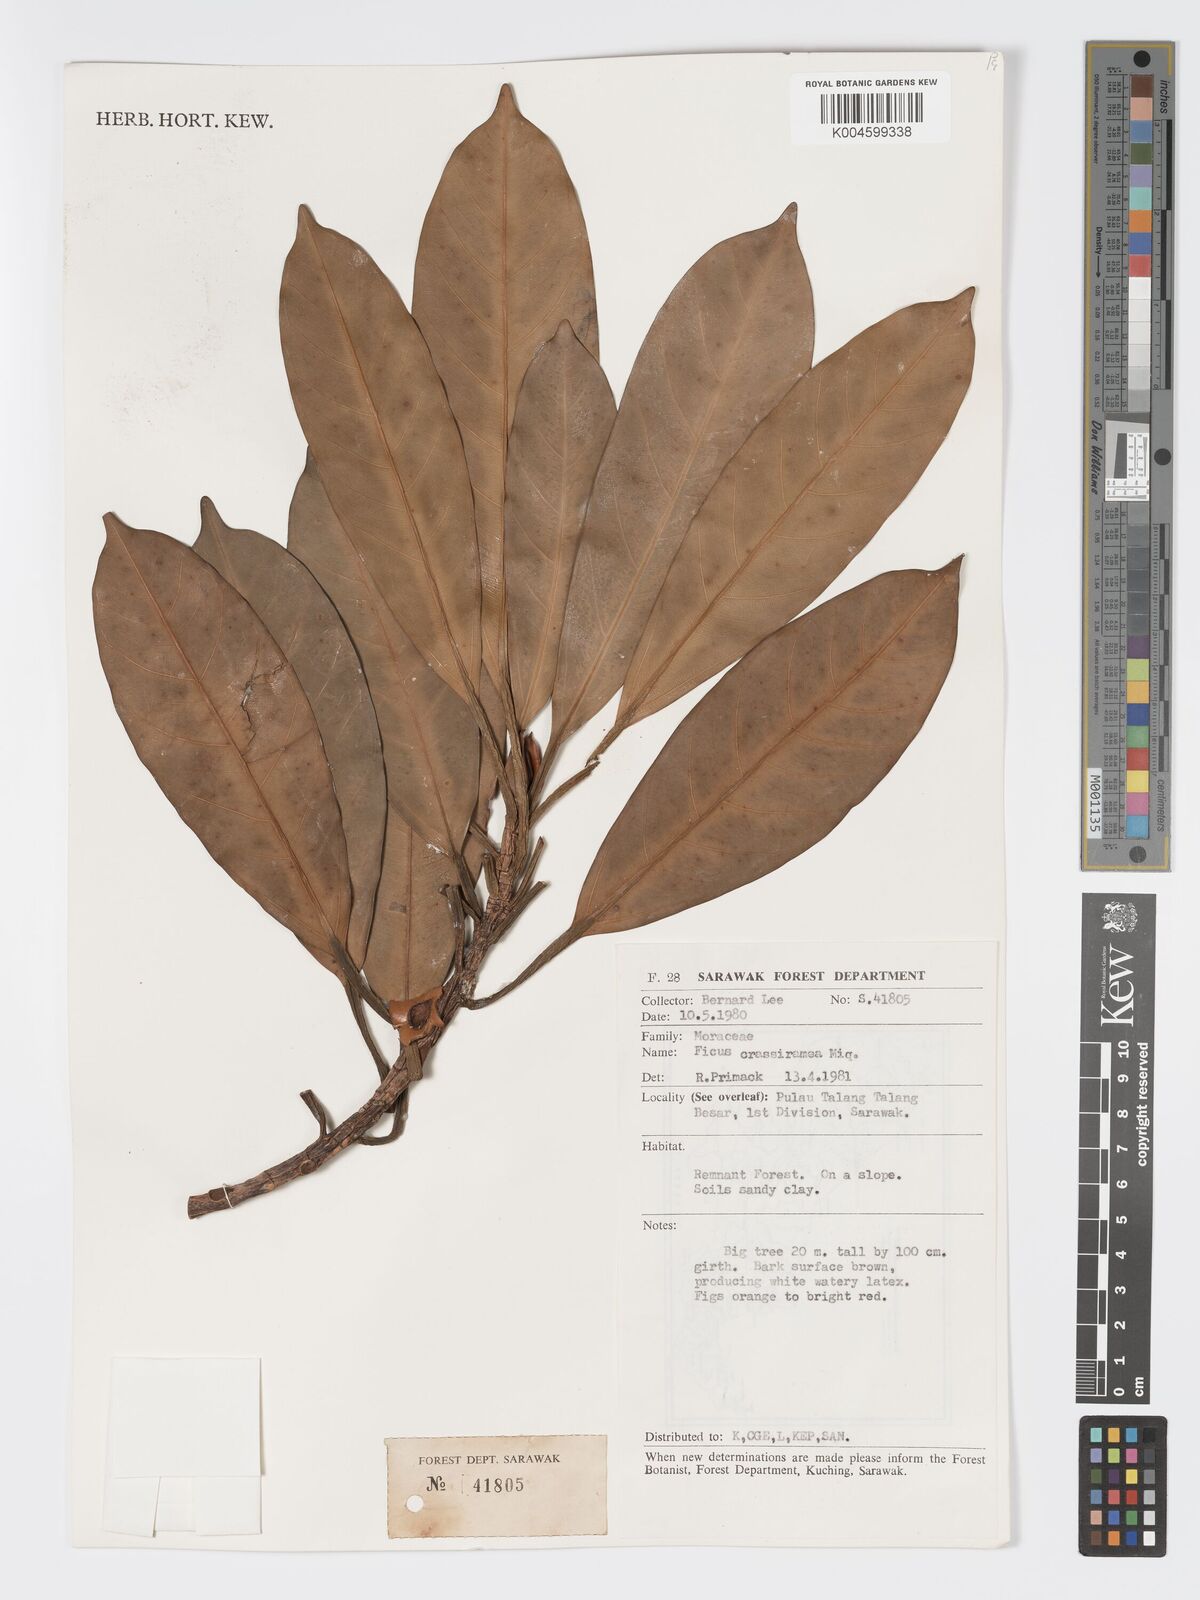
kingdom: Plantae
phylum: Tracheophyta
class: Magnoliopsida
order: Rosales
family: Moraceae
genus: Ficus
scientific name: Ficus crassiramea
